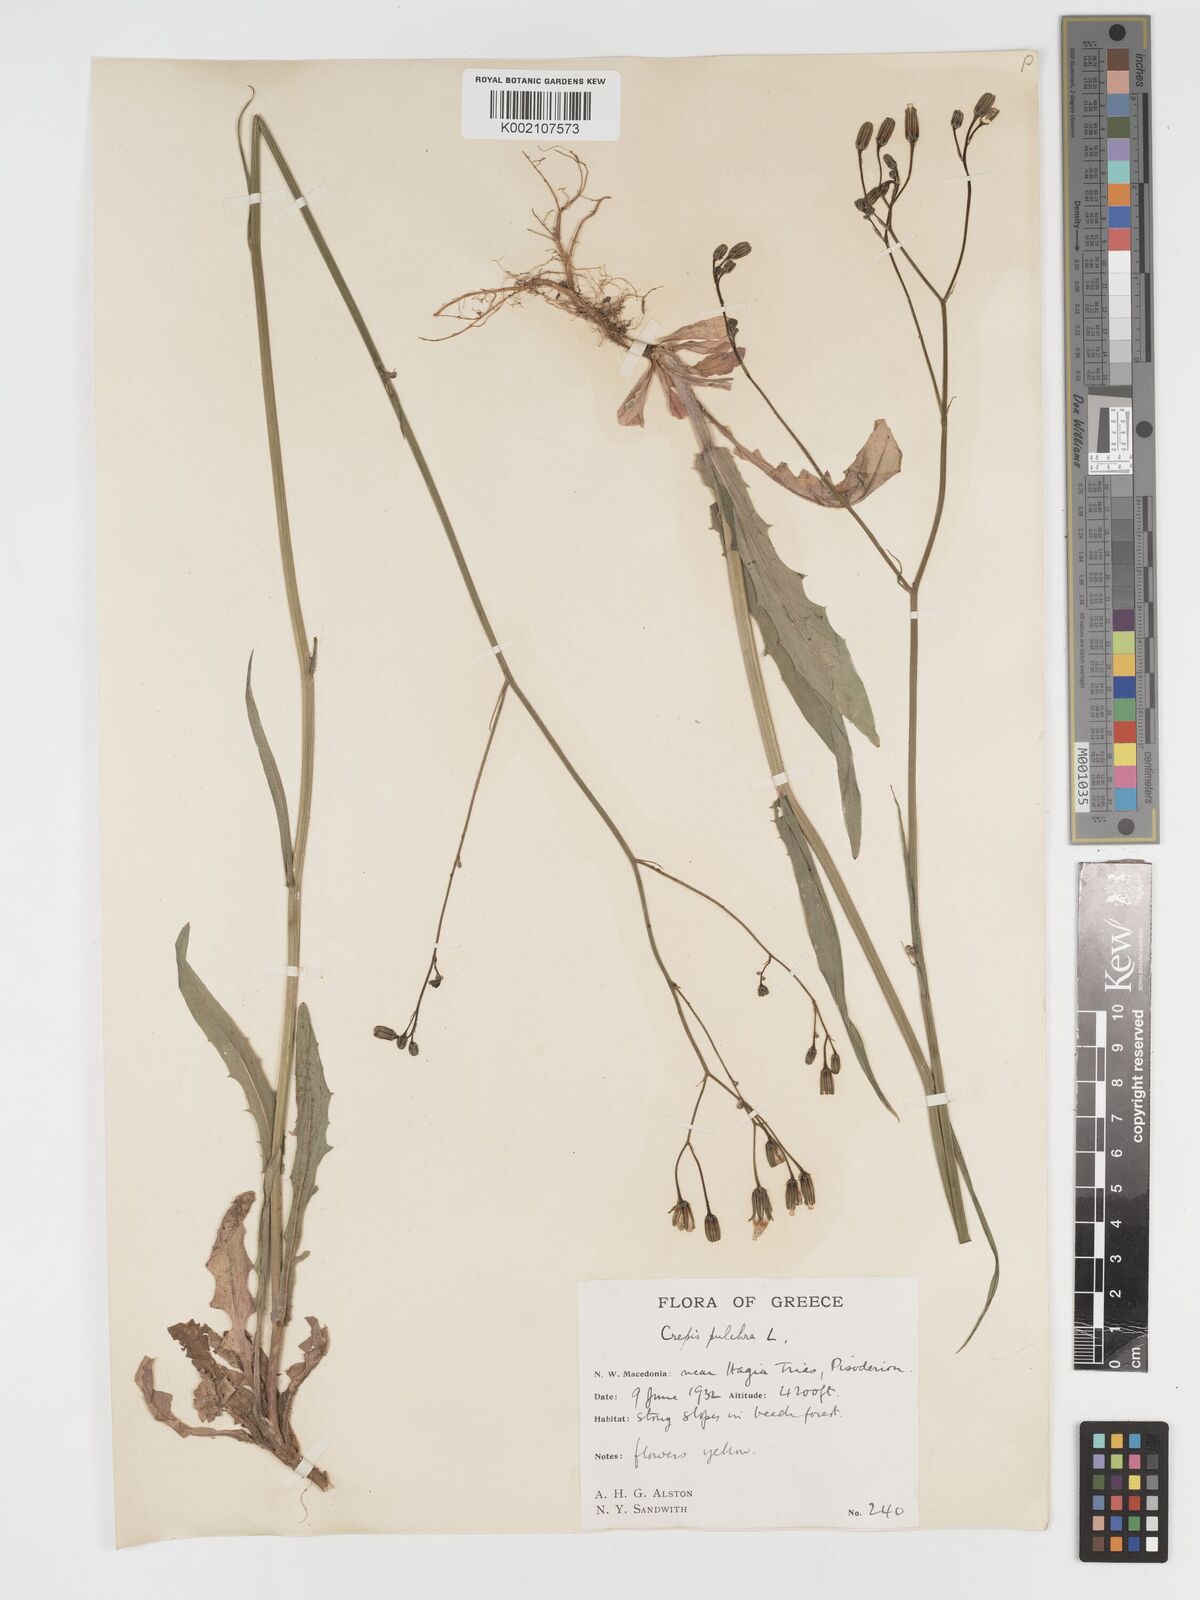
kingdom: Plantae
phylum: Tracheophyta
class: Magnoliopsida
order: Asterales
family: Asteraceae
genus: Crepis
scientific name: Crepis pulchra
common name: Hawk's-beard
